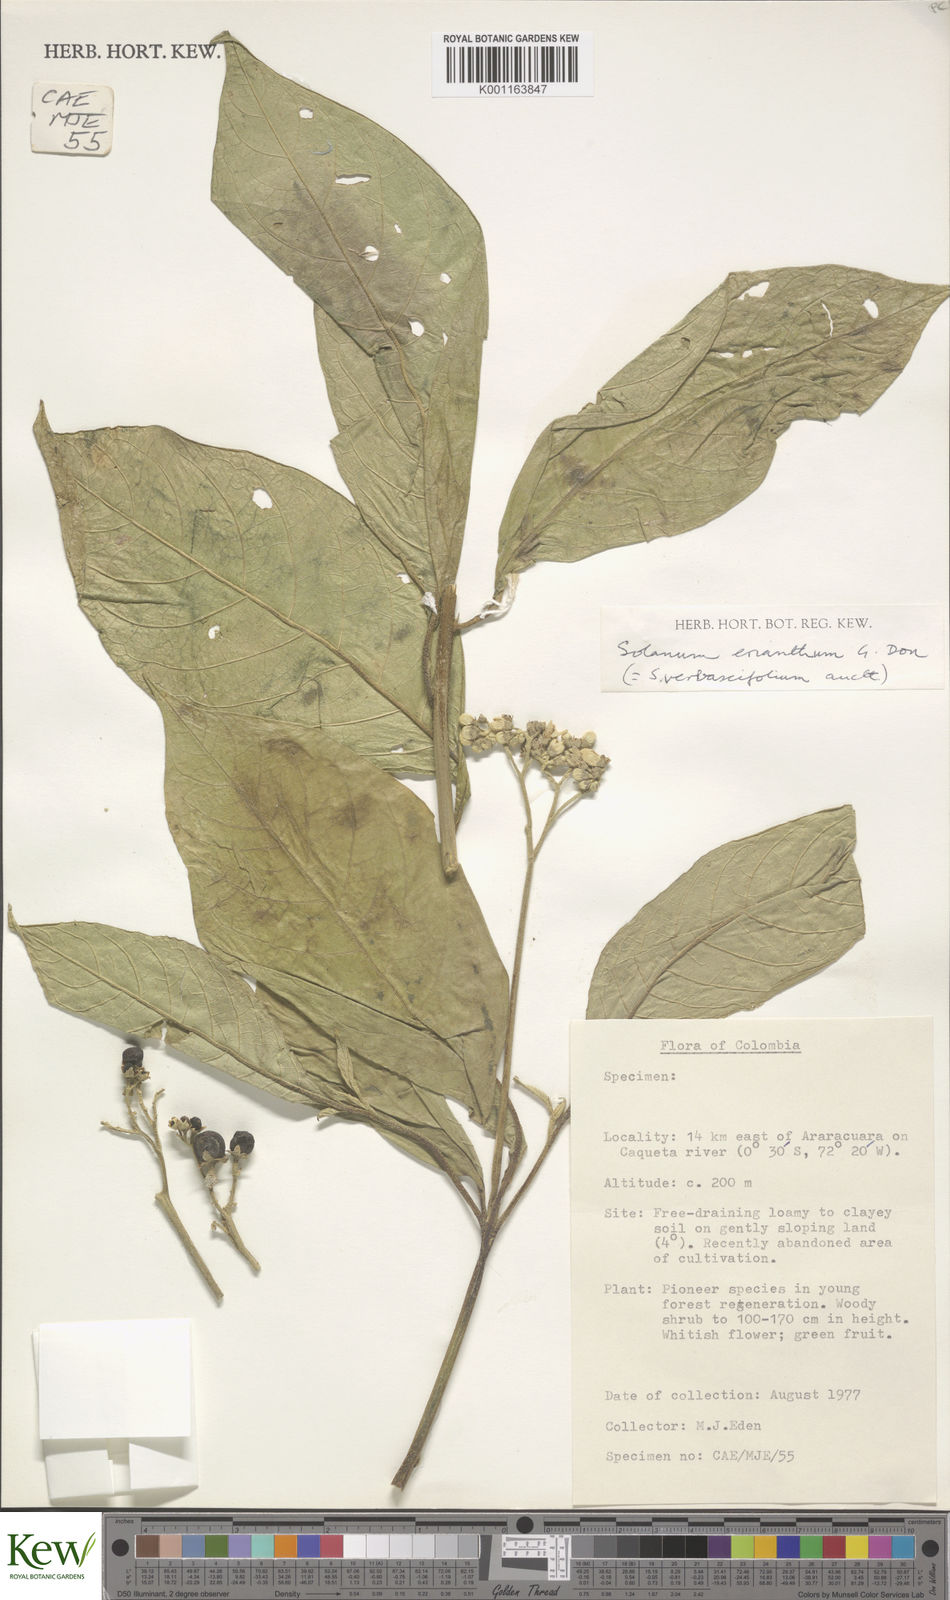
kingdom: Plantae
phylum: Tracheophyta
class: Magnoliopsida
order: Solanales
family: Solanaceae
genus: Solanum
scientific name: Solanum erianthum
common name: Tobacco-tree
